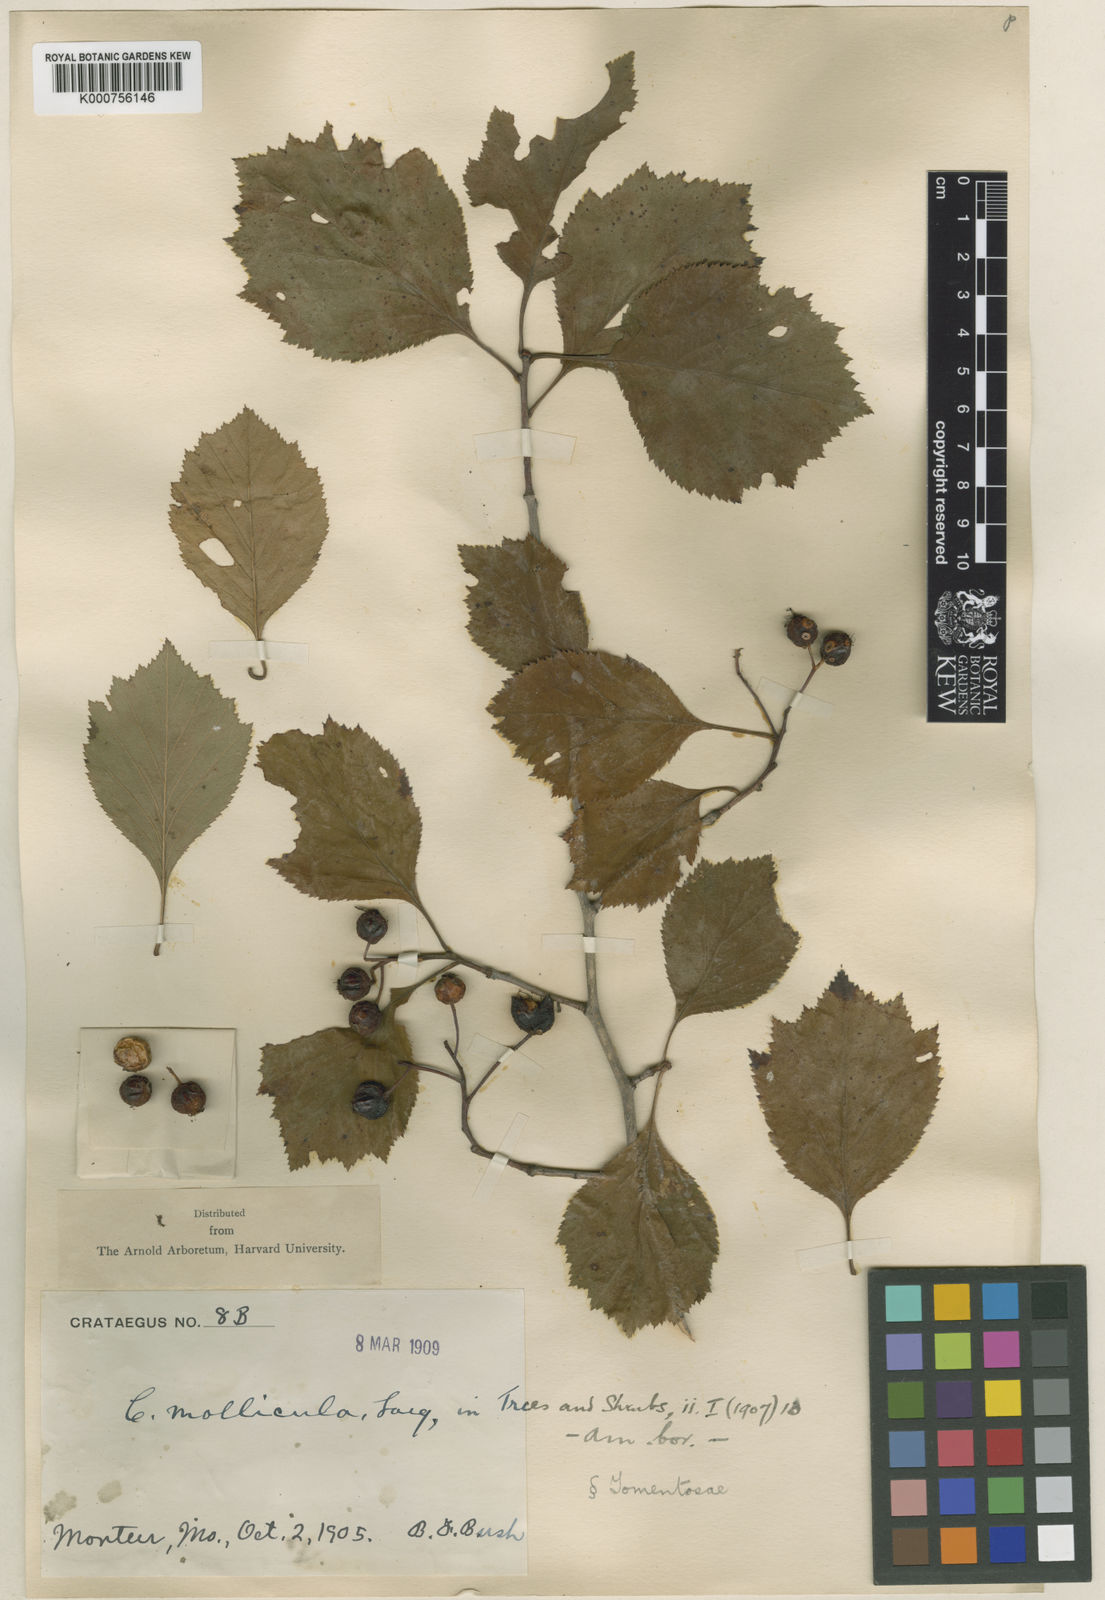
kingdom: Plantae
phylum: Tracheophyta
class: Magnoliopsida
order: Rosales
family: Rosaceae
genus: Crataegus
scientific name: Crataegus calpodendron
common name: Pear hawthorn
